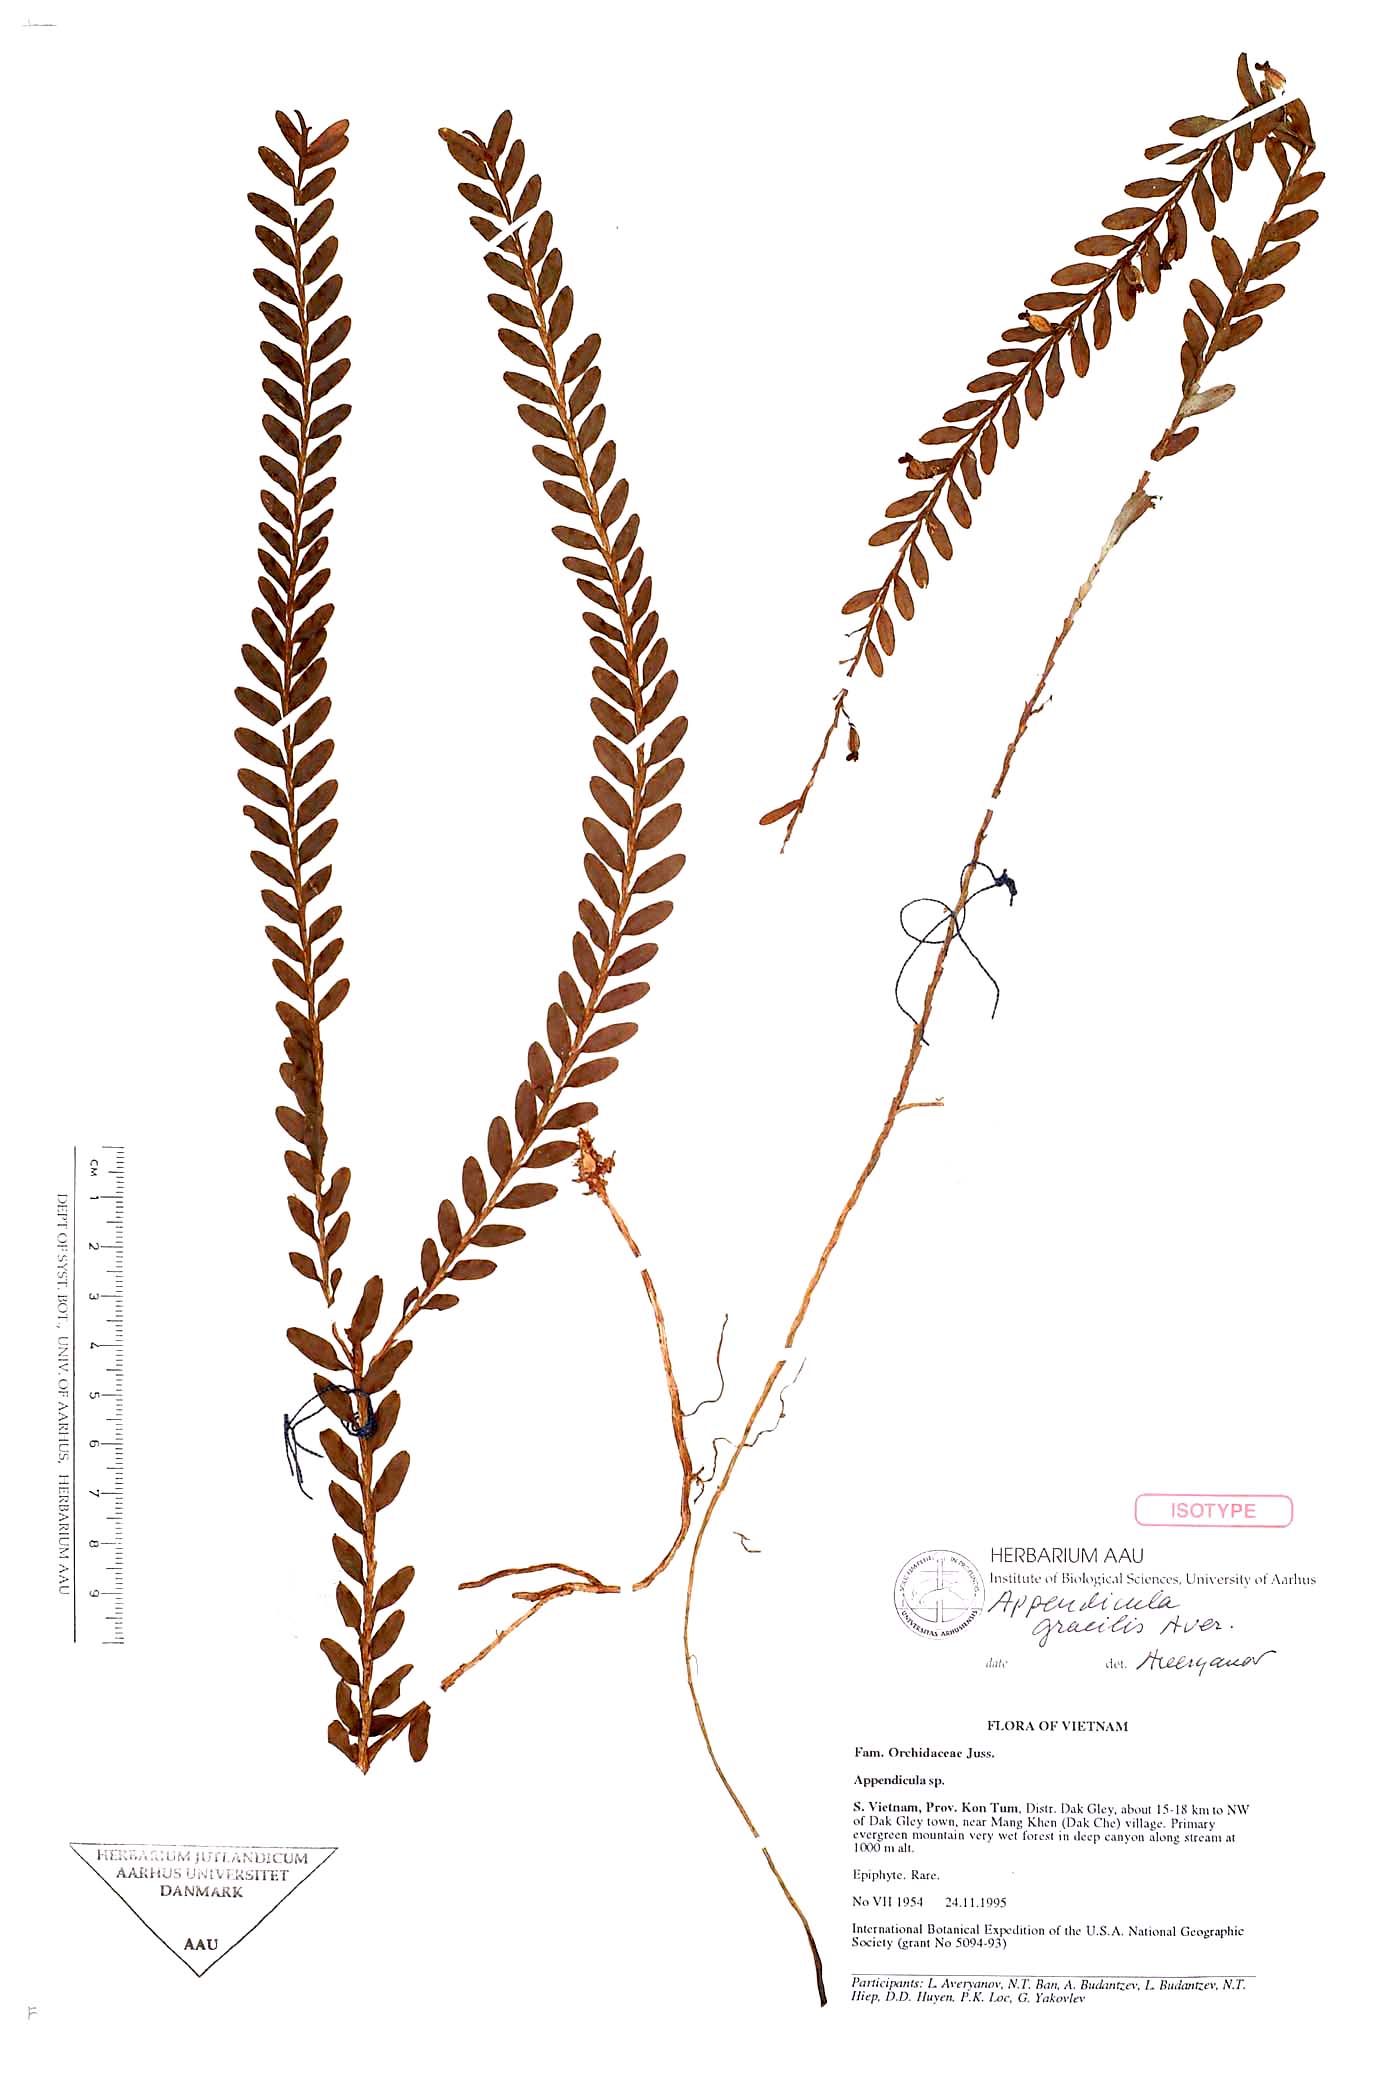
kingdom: Plantae
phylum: Tracheophyta
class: Liliopsida
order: Asparagales
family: Orchidaceae
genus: Appendicula
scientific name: Appendicula gracilis
